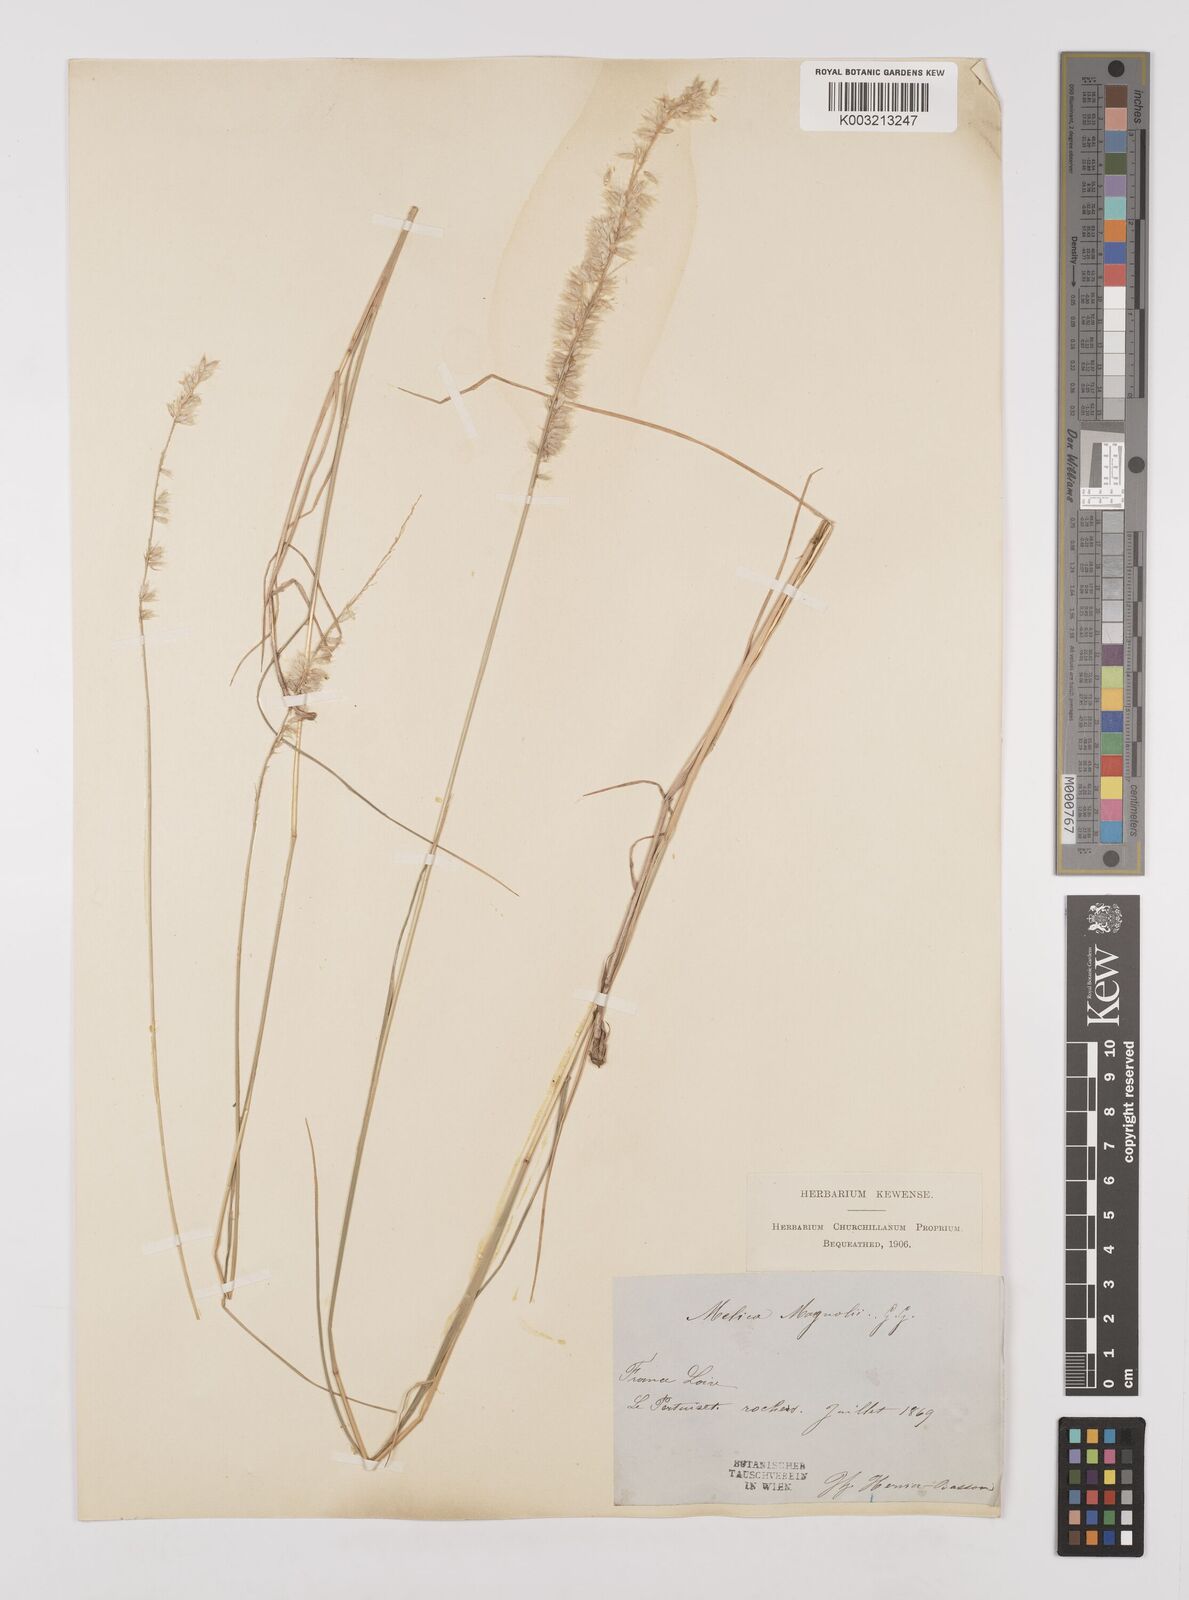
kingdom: Plantae
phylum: Tracheophyta
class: Liliopsida
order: Poales
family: Poaceae
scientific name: Poaceae
